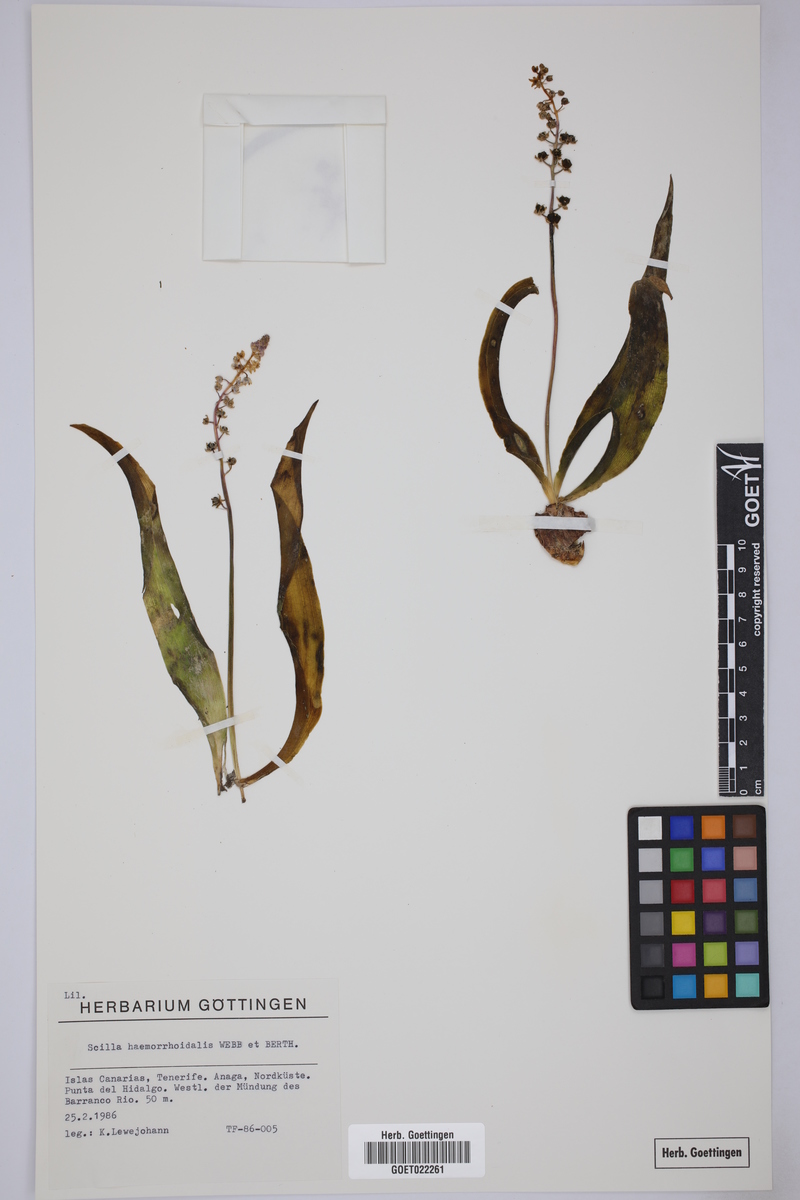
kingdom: Plantae
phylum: Tracheophyta
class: Liliopsida
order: Asparagales
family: Asparagaceae
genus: Scilla
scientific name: Scilla haemorrhoidalis
